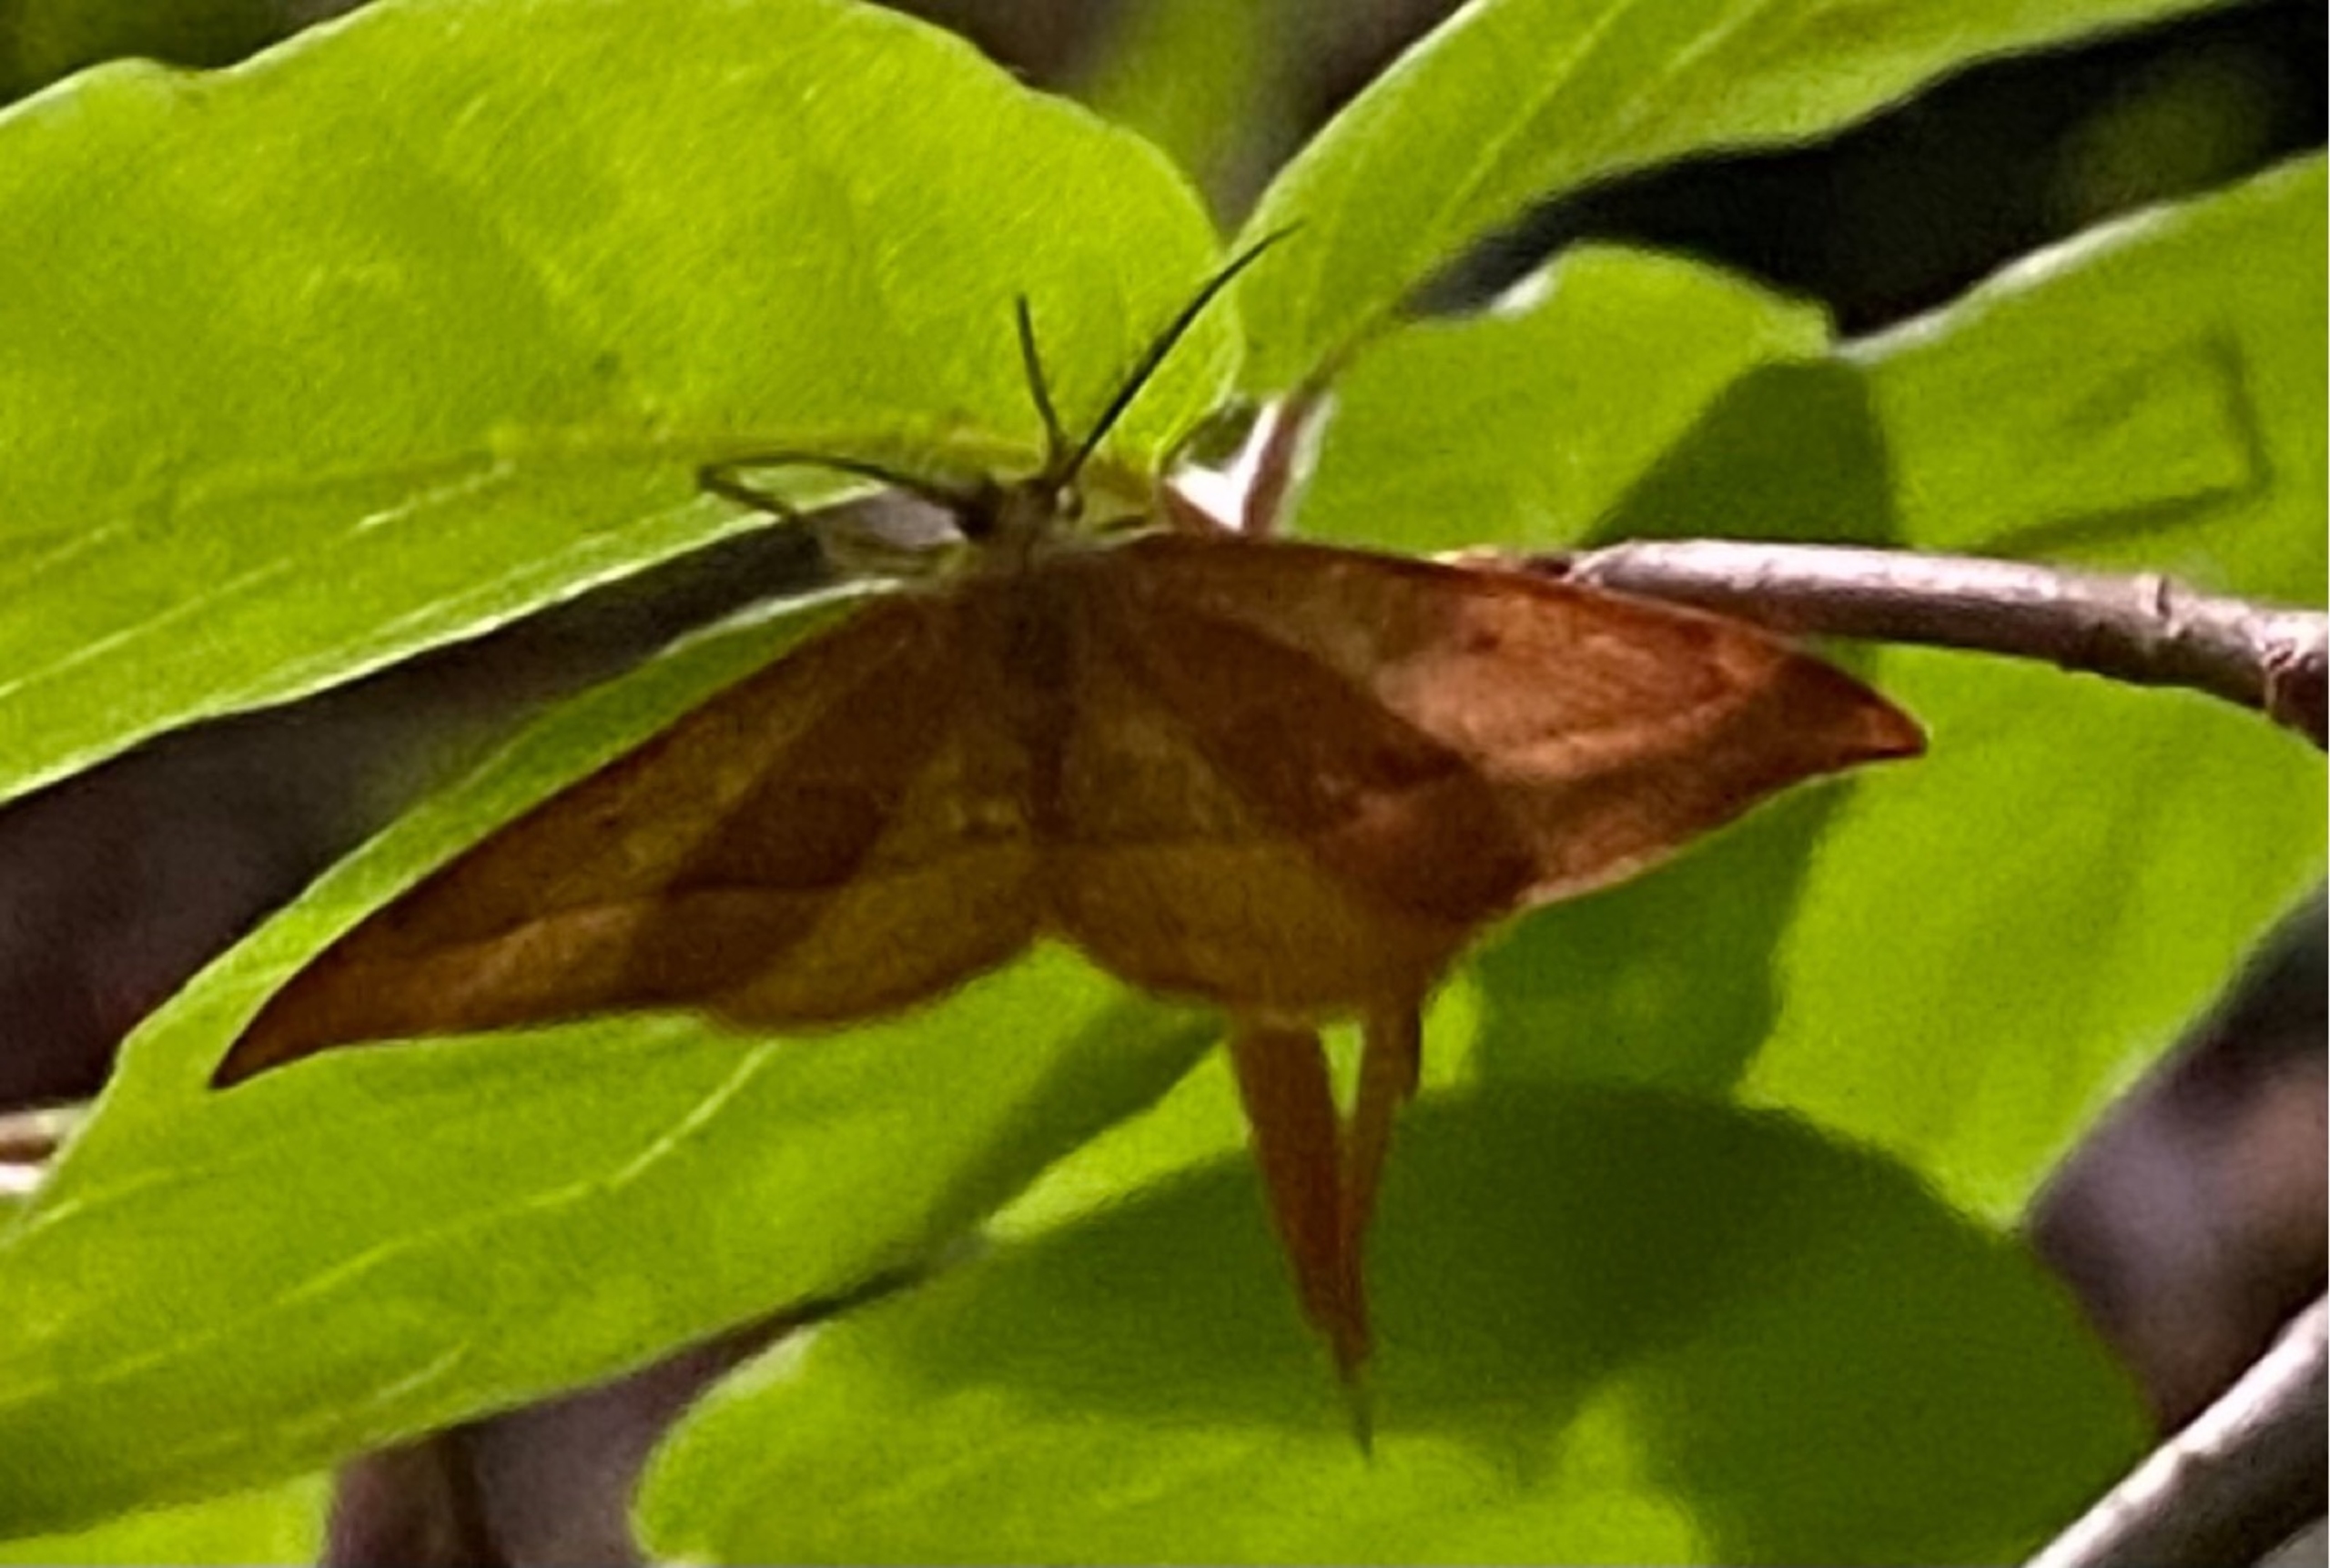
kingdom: Animalia
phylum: Arthropoda
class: Insecta
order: Lepidoptera
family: Drepanidae
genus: Drepana
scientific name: Drepana curvatula
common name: Brun seglvinge
